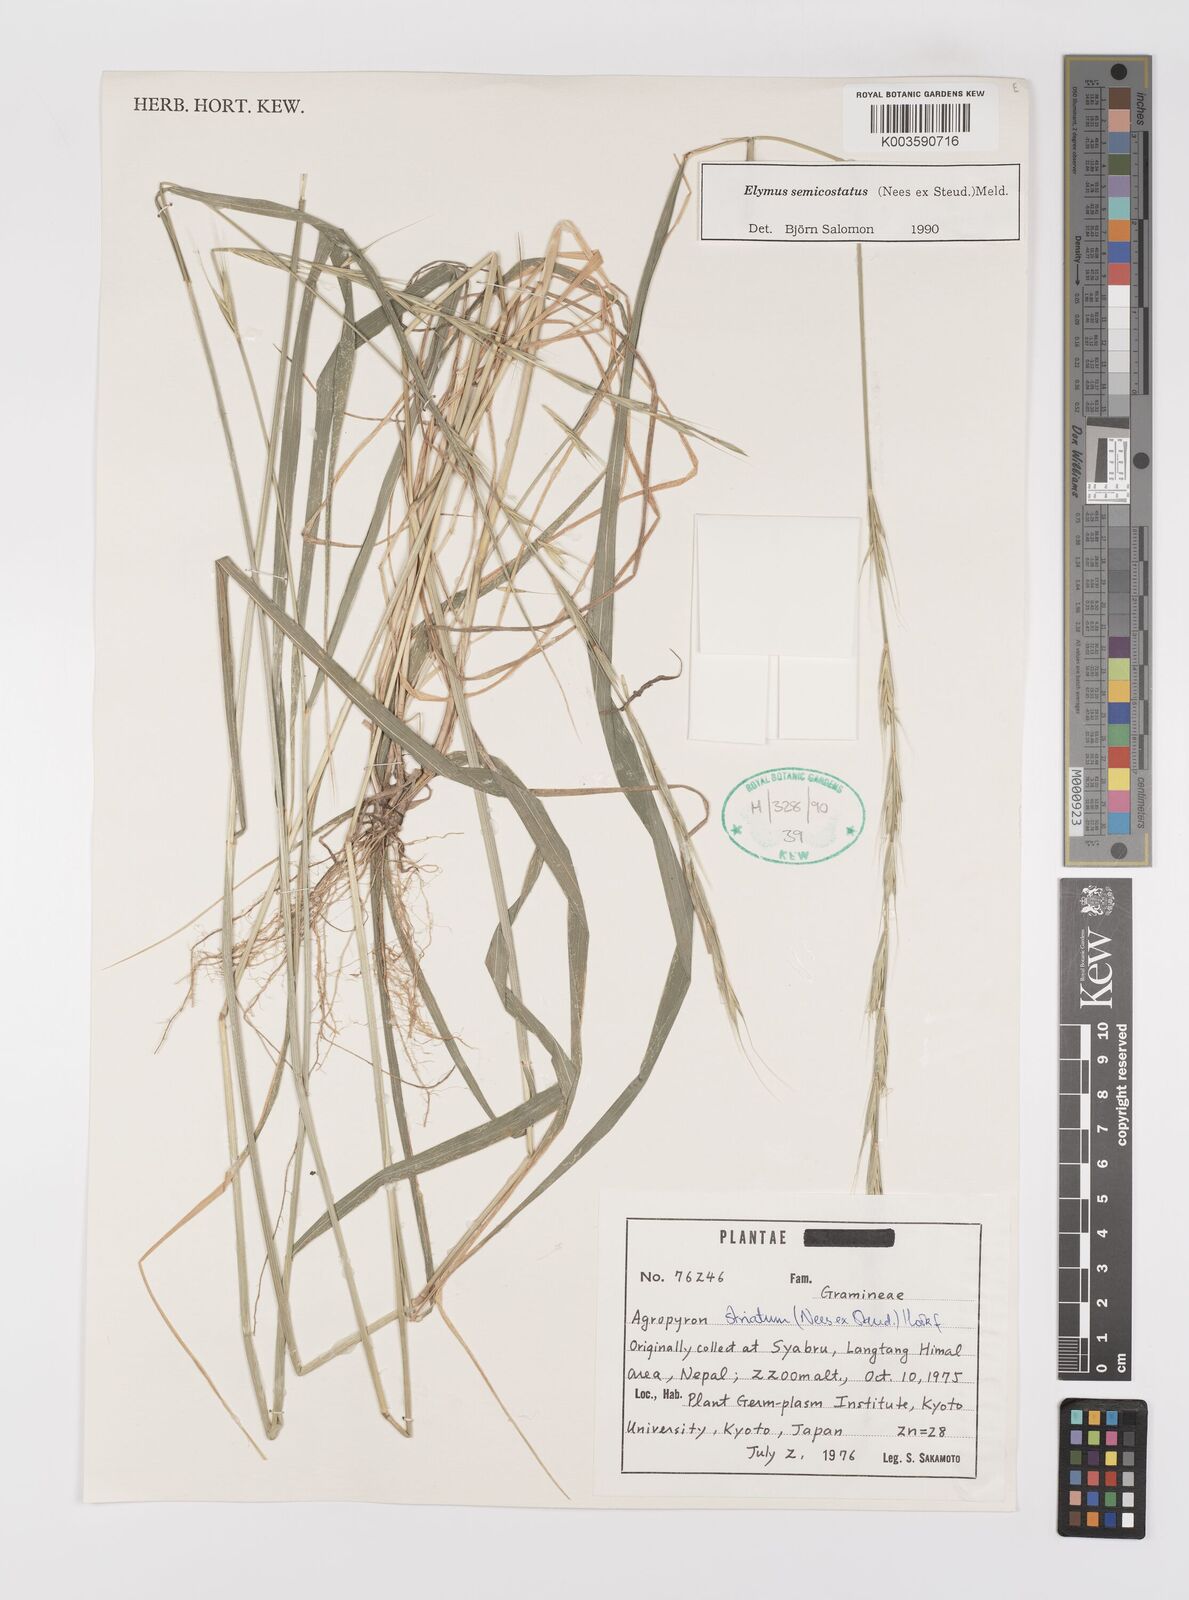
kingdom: Plantae
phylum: Tracheophyta
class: Liliopsida
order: Poales
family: Poaceae
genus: Elymus
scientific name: Elymus semicostatus
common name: Drooping wildrye
